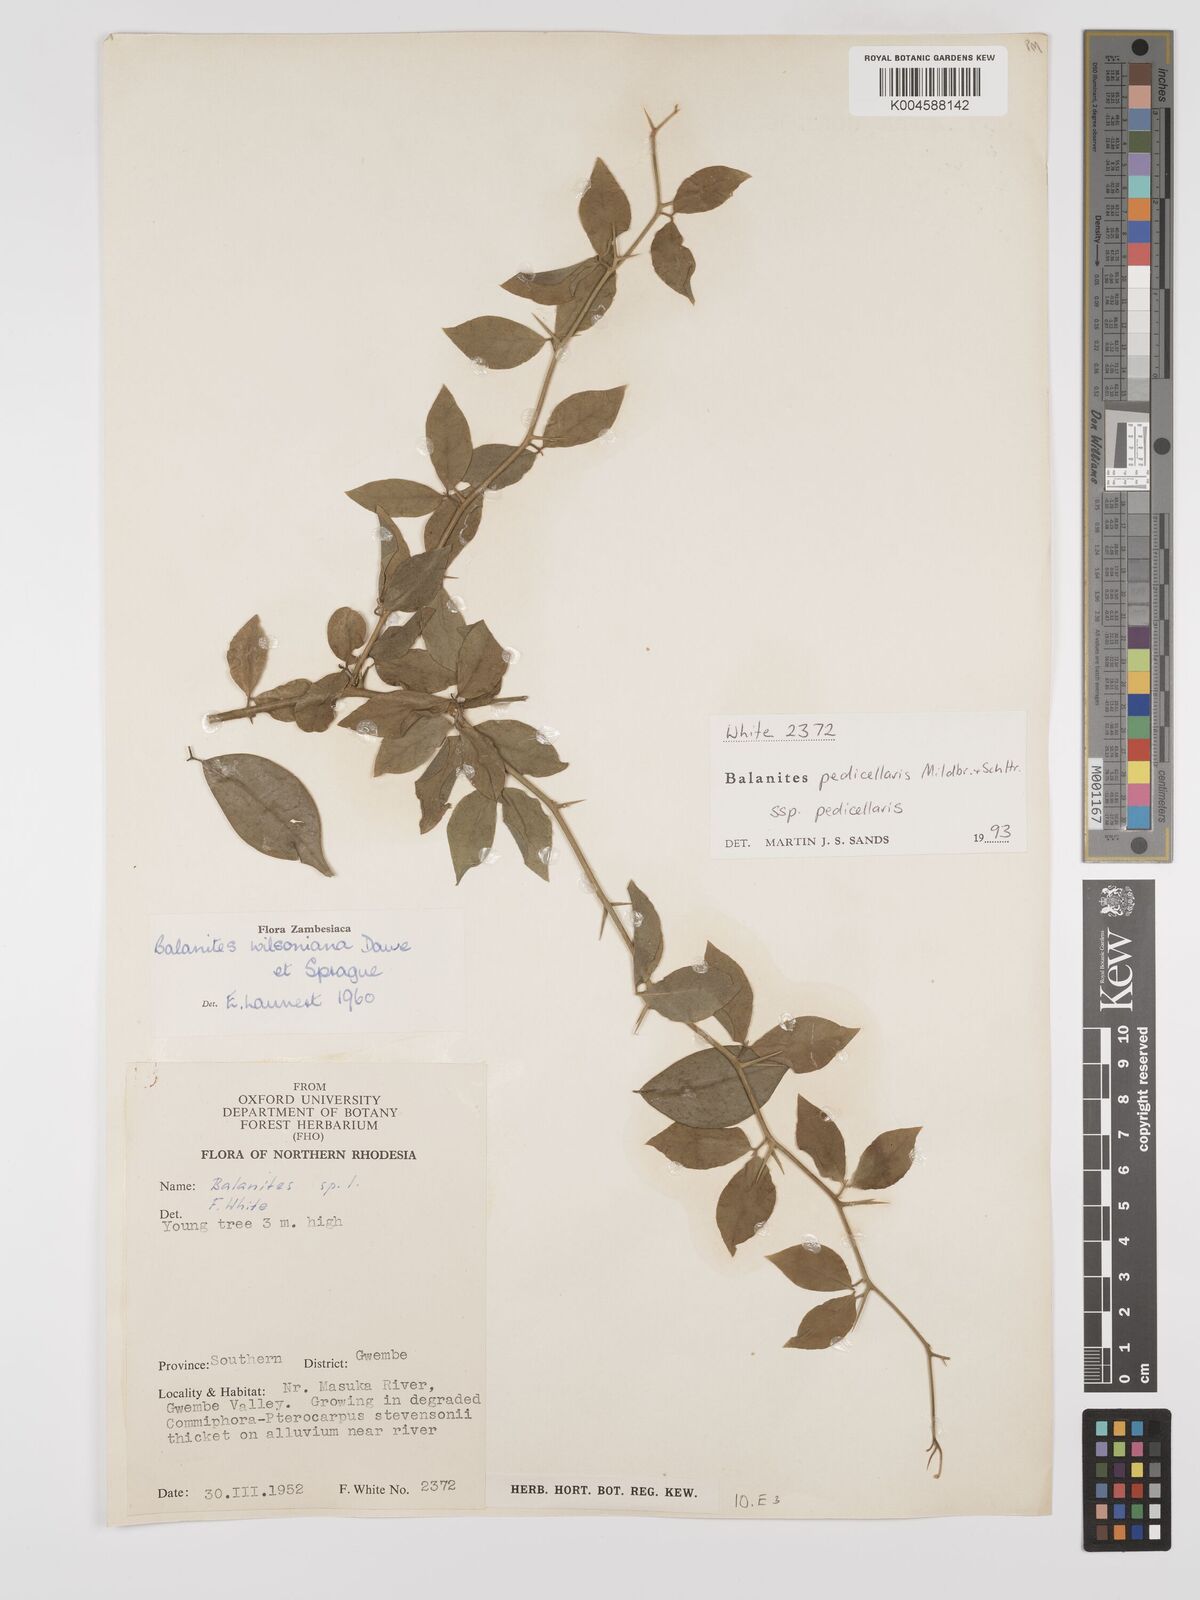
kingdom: Plantae
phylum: Tracheophyta
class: Magnoliopsida
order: Zygophyllales
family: Zygophyllaceae
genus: Balanites
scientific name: Balanites pedicellaris
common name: Small green-thorn
